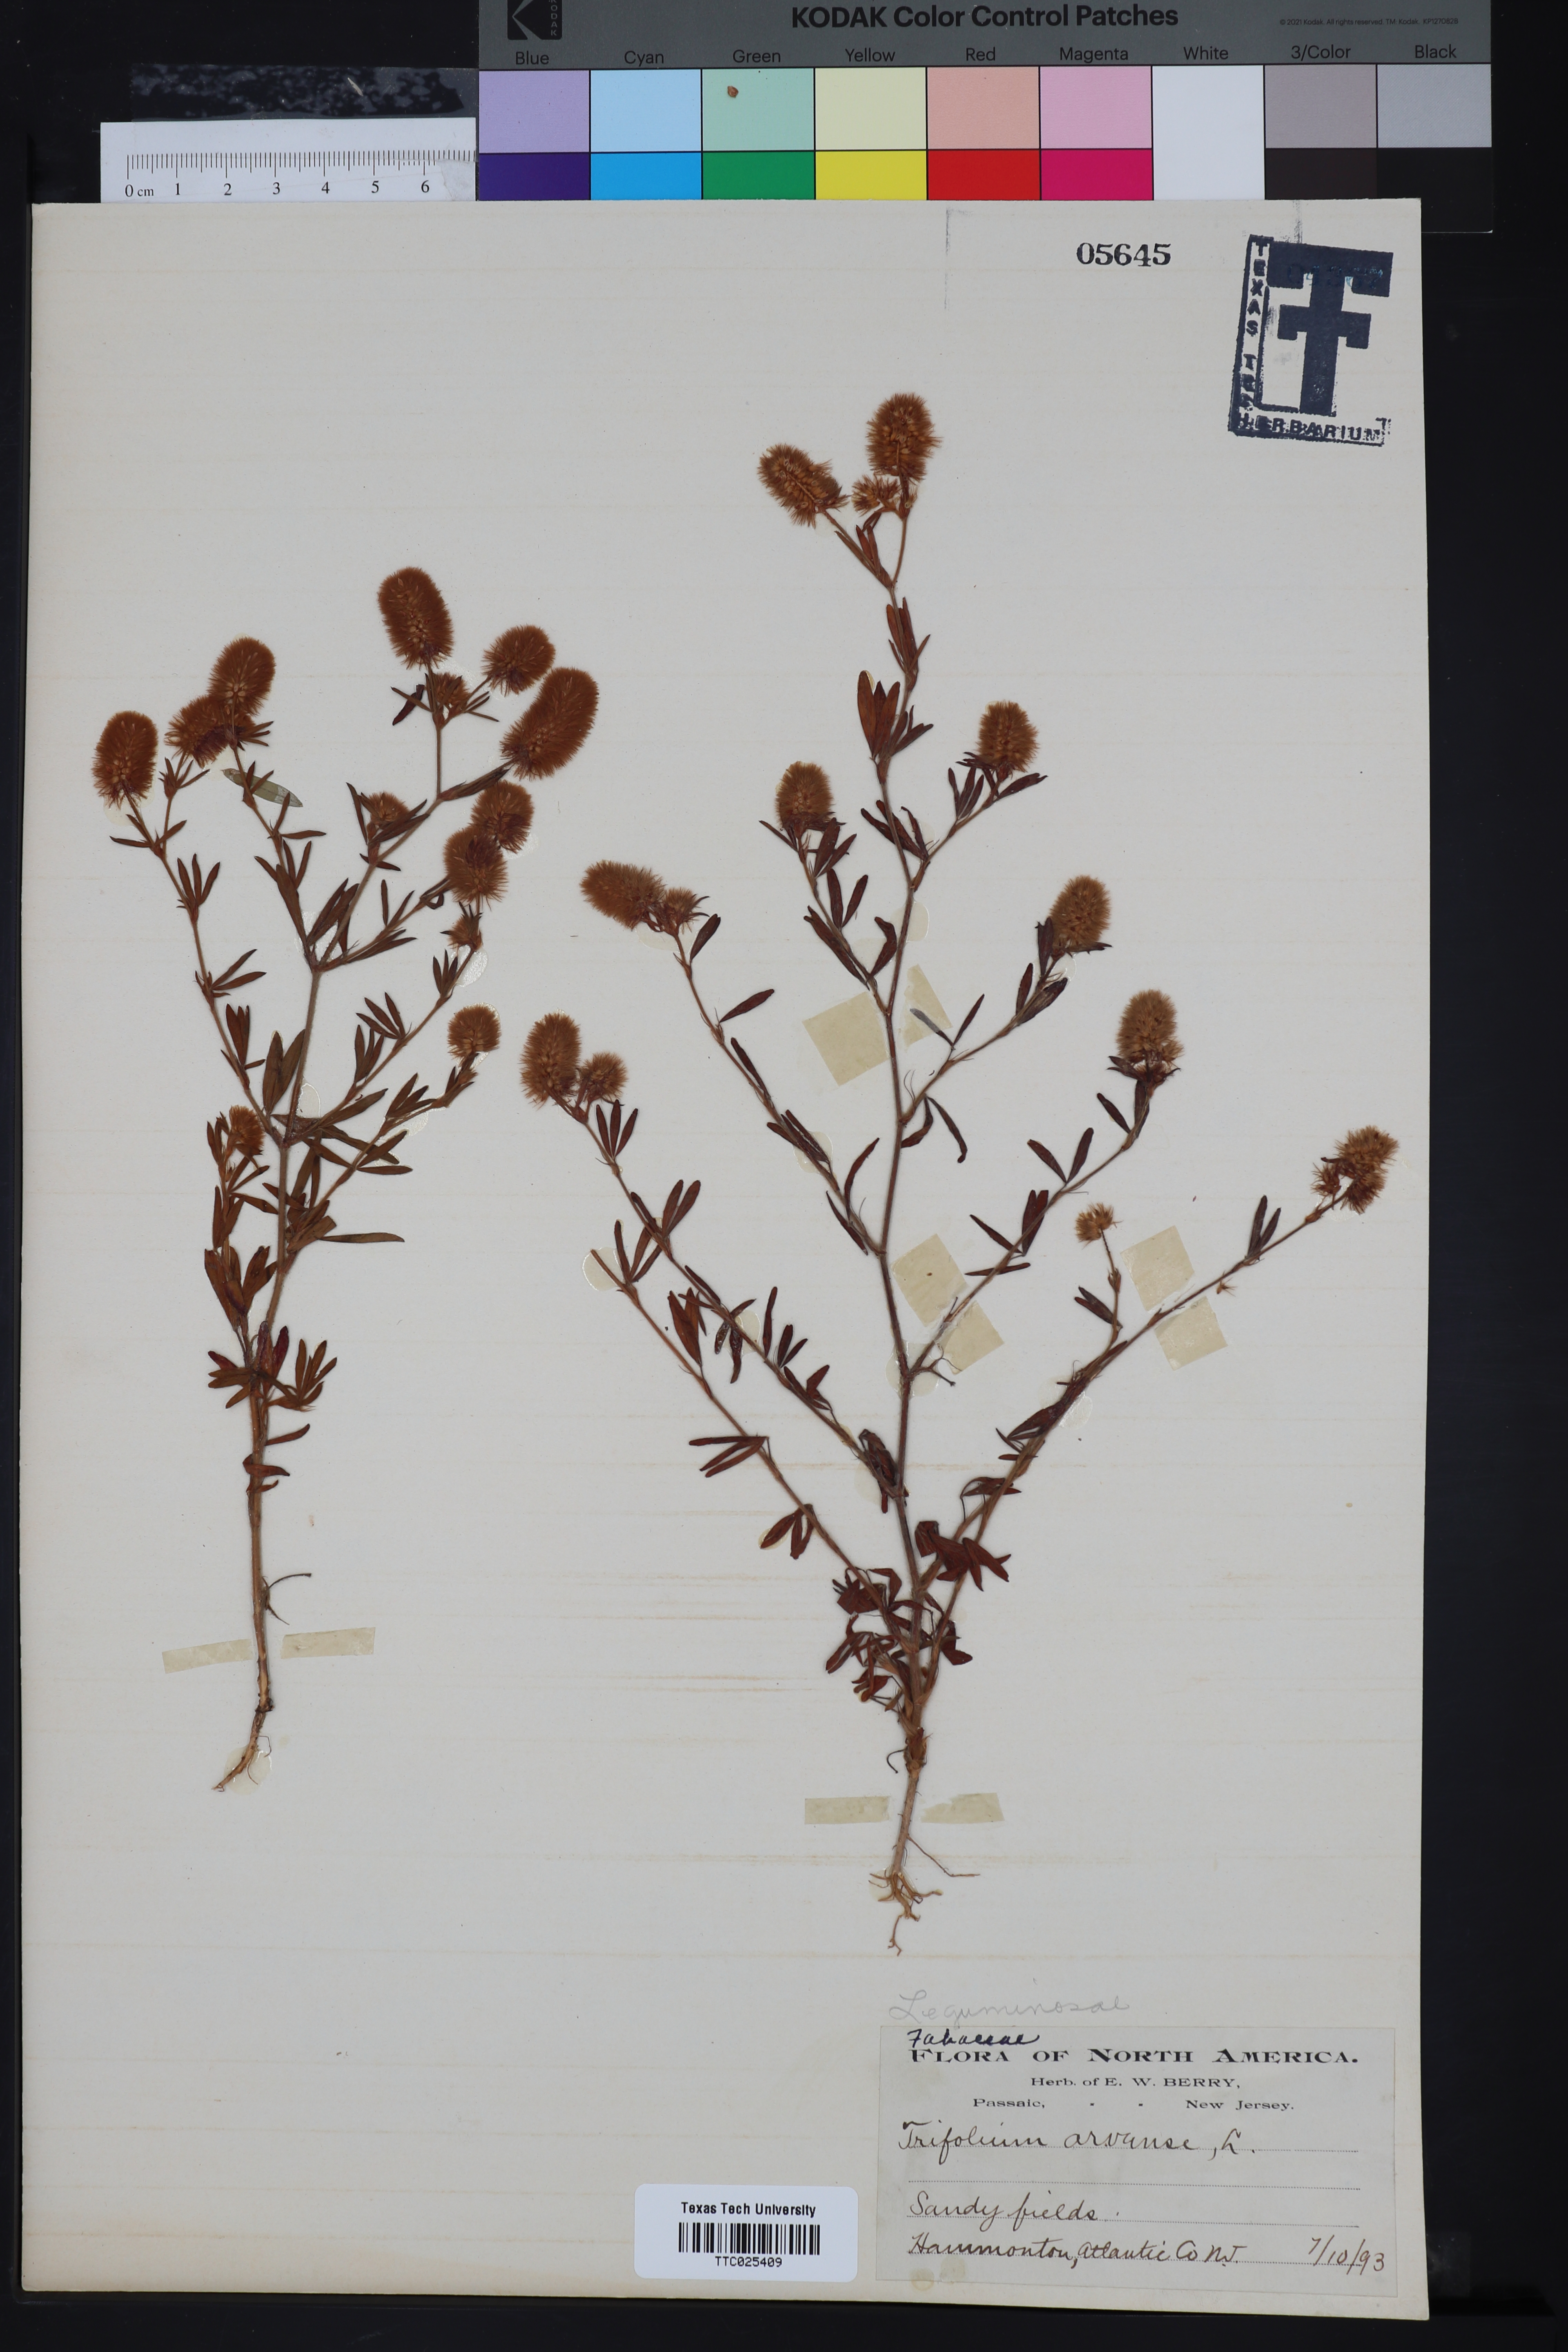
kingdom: Plantae
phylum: Tracheophyta
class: Magnoliopsida
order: Fabales
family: Fabaceae
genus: Trifolium
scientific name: Trifolium arvense
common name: Hare's-foot clover
